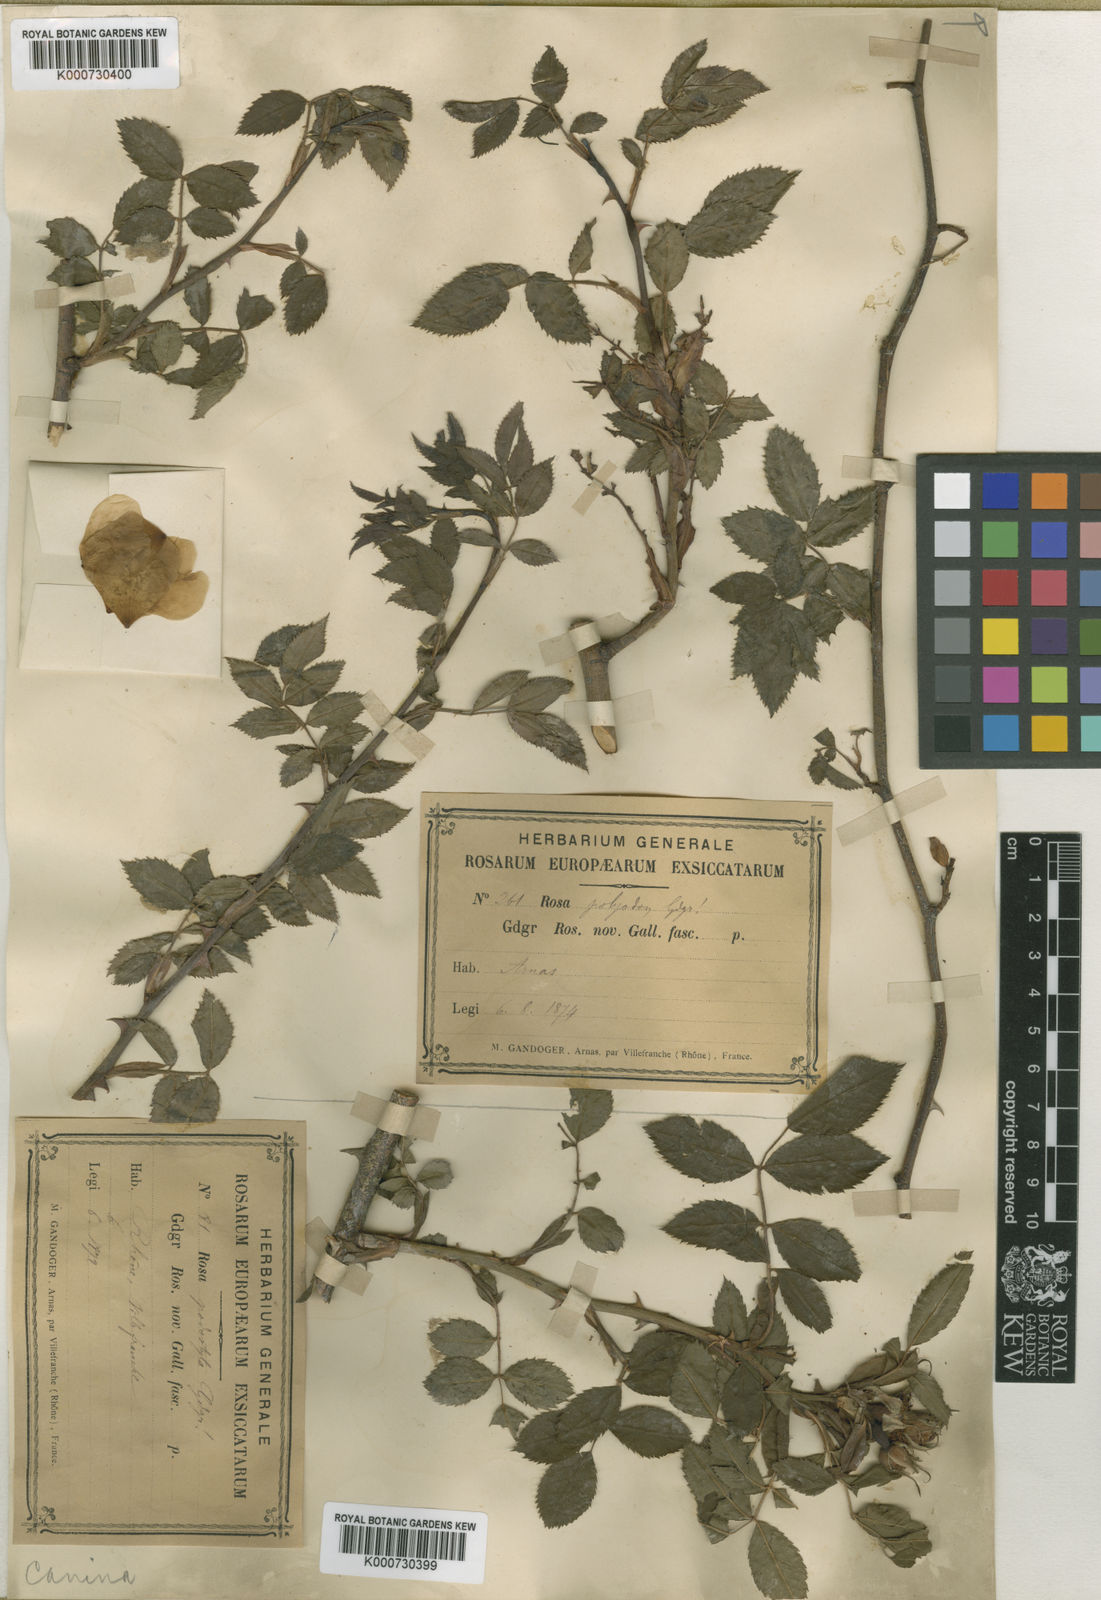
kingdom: Plantae
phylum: Tracheophyta
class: Magnoliopsida
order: Rosales
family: Rosaceae
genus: Rosa
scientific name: Rosa canina
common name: Dog rose
